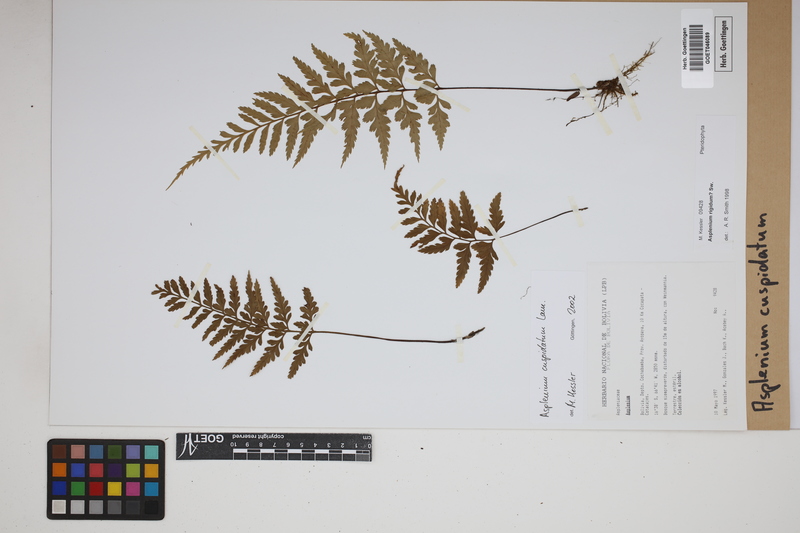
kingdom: Plantae
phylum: Tracheophyta
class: Polypodiopsida
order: Polypodiales
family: Aspleniaceae
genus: Asplenium
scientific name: Asplenium cuspidatum
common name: Eared spleenwort
